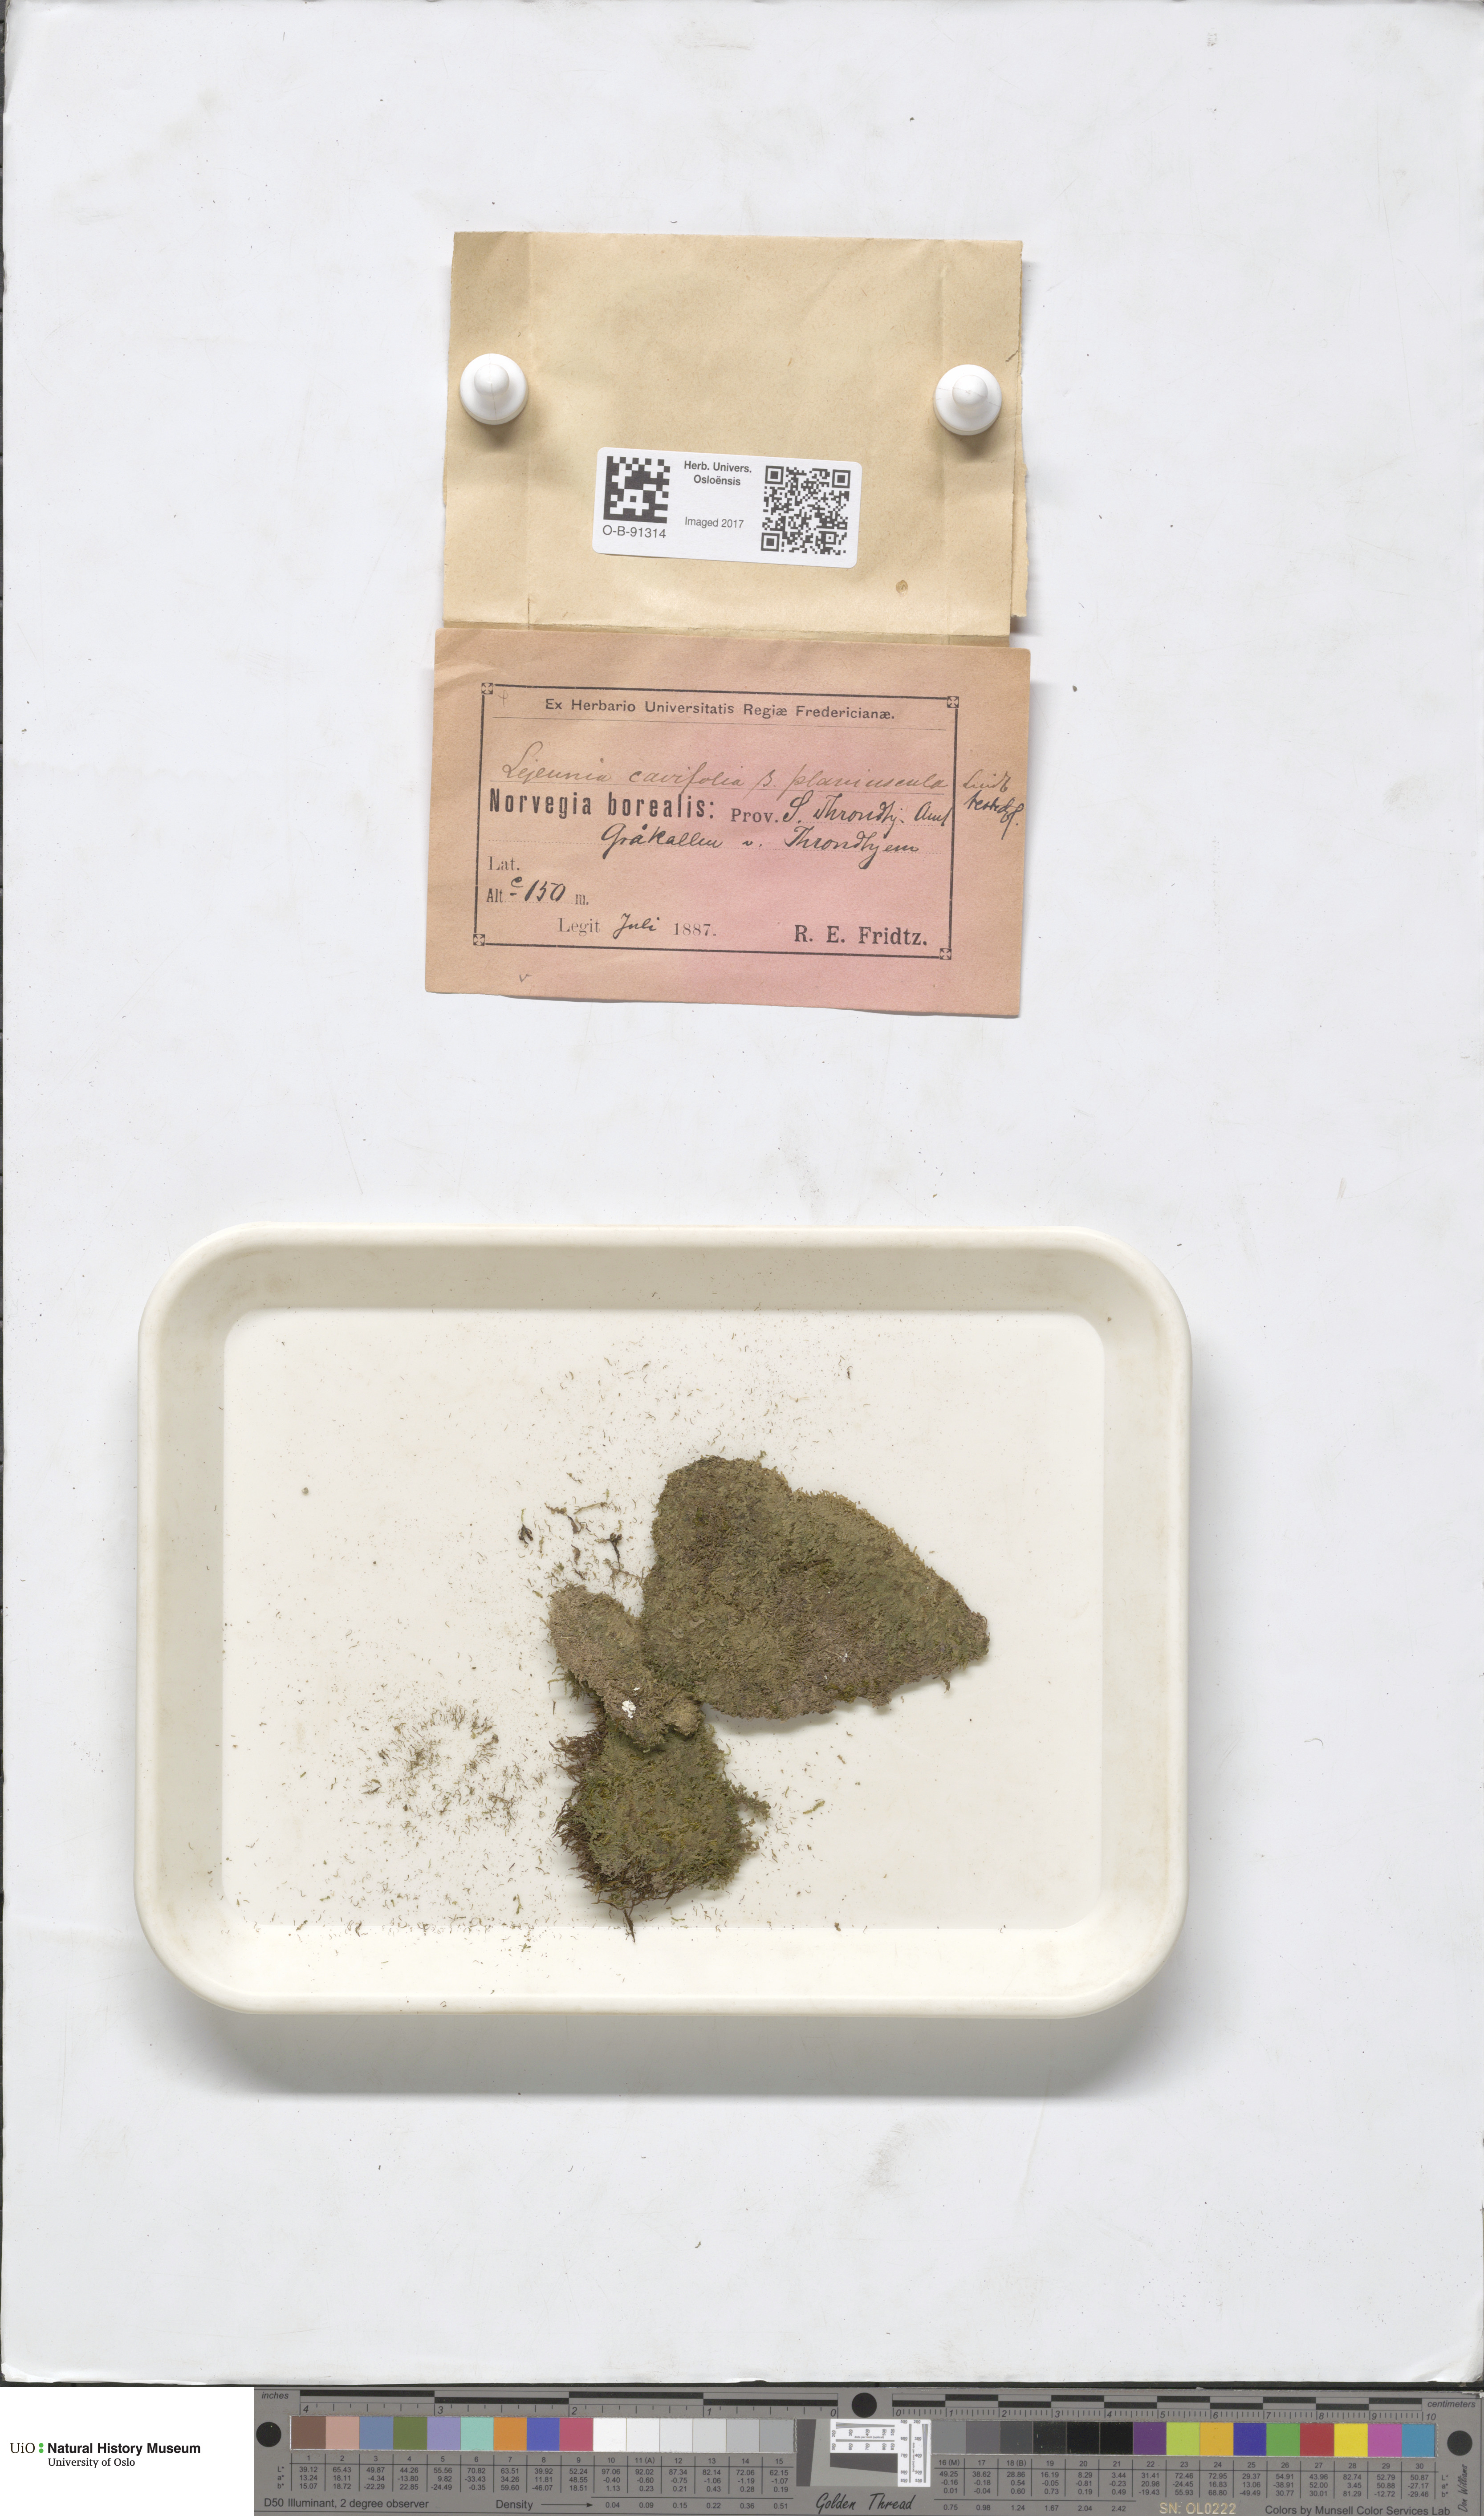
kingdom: Plantae
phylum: Marchantiophyta
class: Jungermanniopsida
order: Porellales
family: Lejeuneaceae
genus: Lejeunea
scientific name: Lejeunea cavifolia
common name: Least pouncewort
